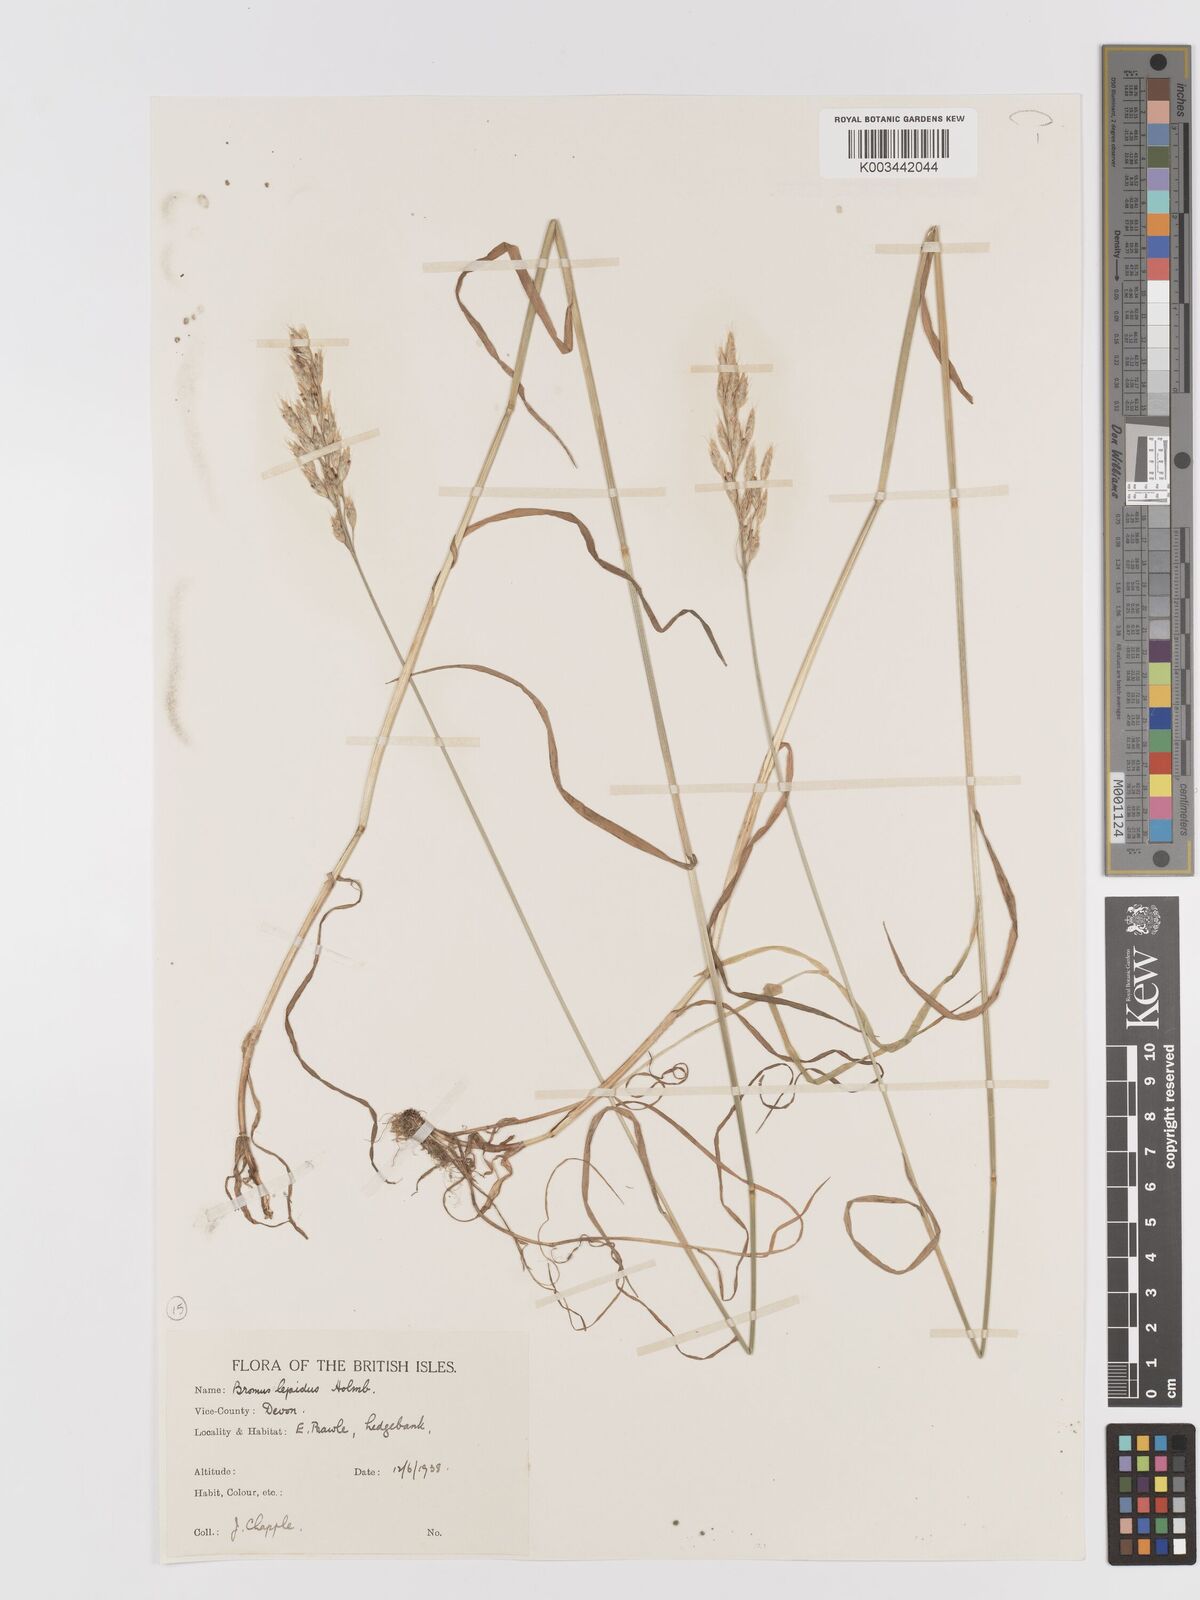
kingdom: Plantae
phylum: Tracheophyta
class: Liliopsida
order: Poales
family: Poaceae
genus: Bromus
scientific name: Bromus lepidus
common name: Slender soft-brome
